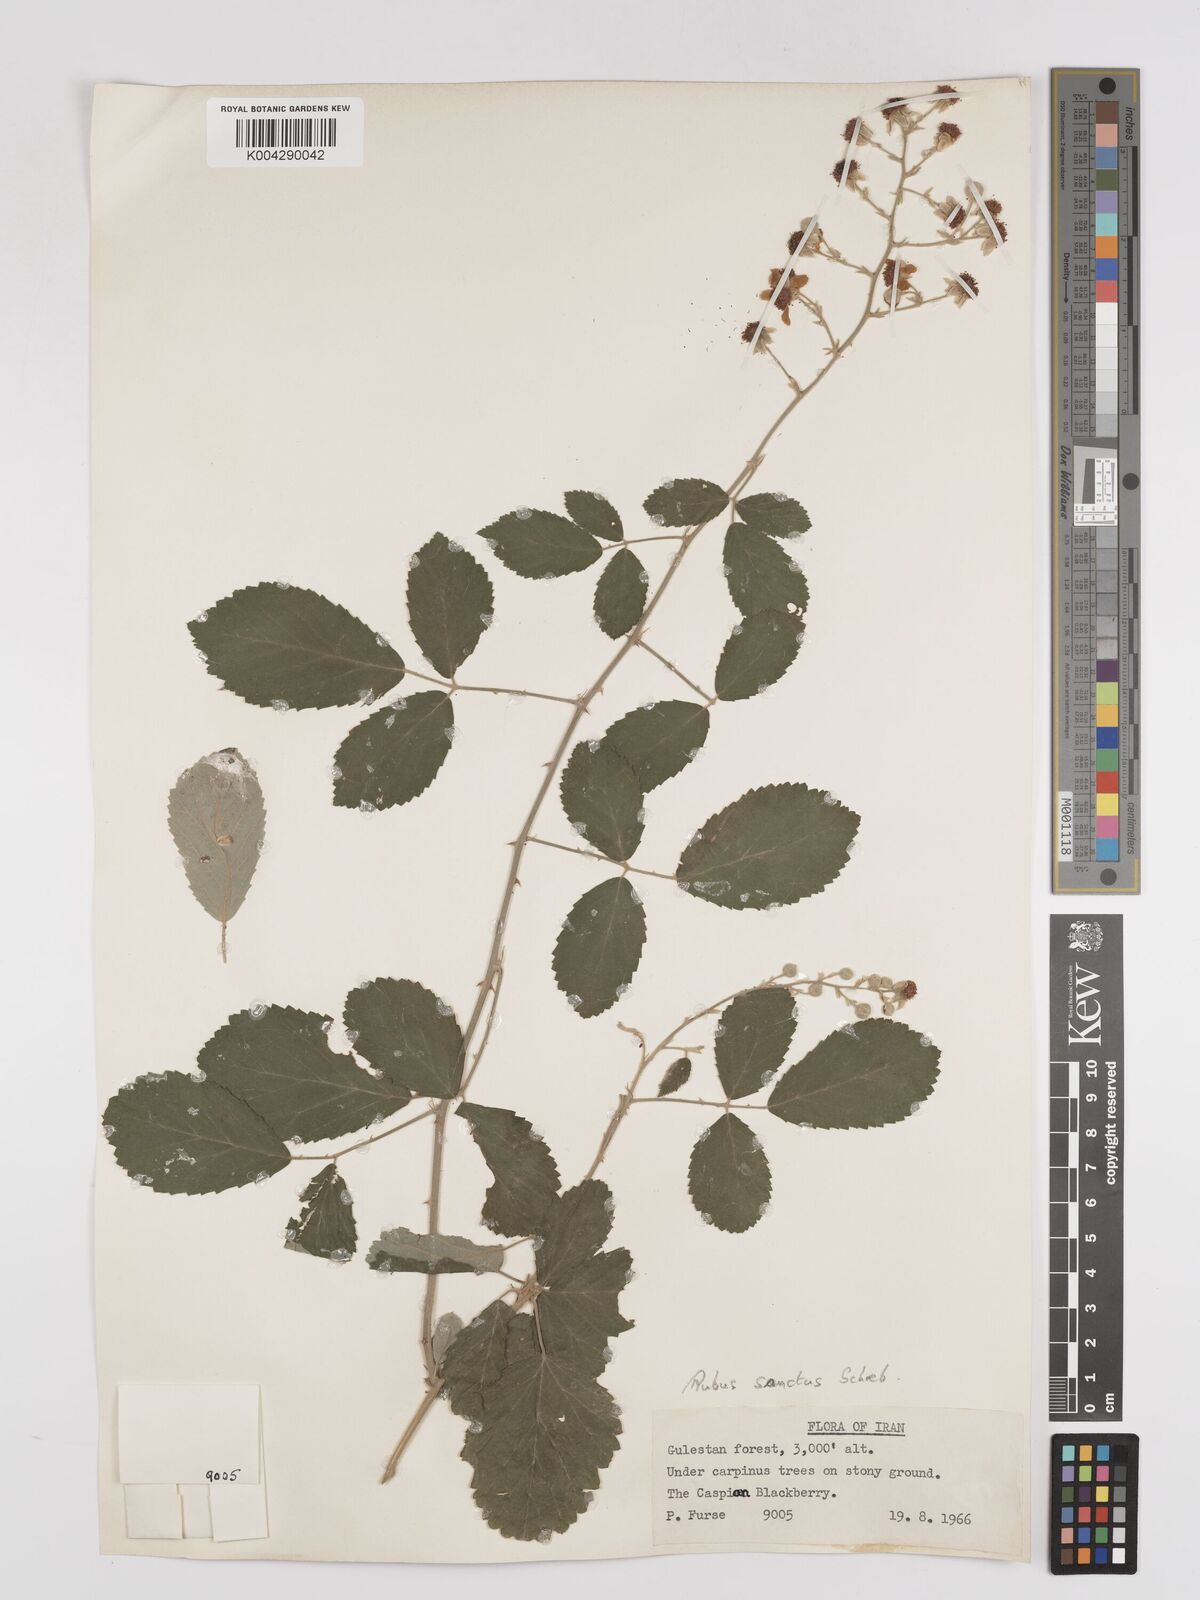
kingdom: Plantae
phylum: Tracheophyta
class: Magnoliopsida
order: Rosales
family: Rosaceae
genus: Rubus
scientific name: Rubus sanctus
